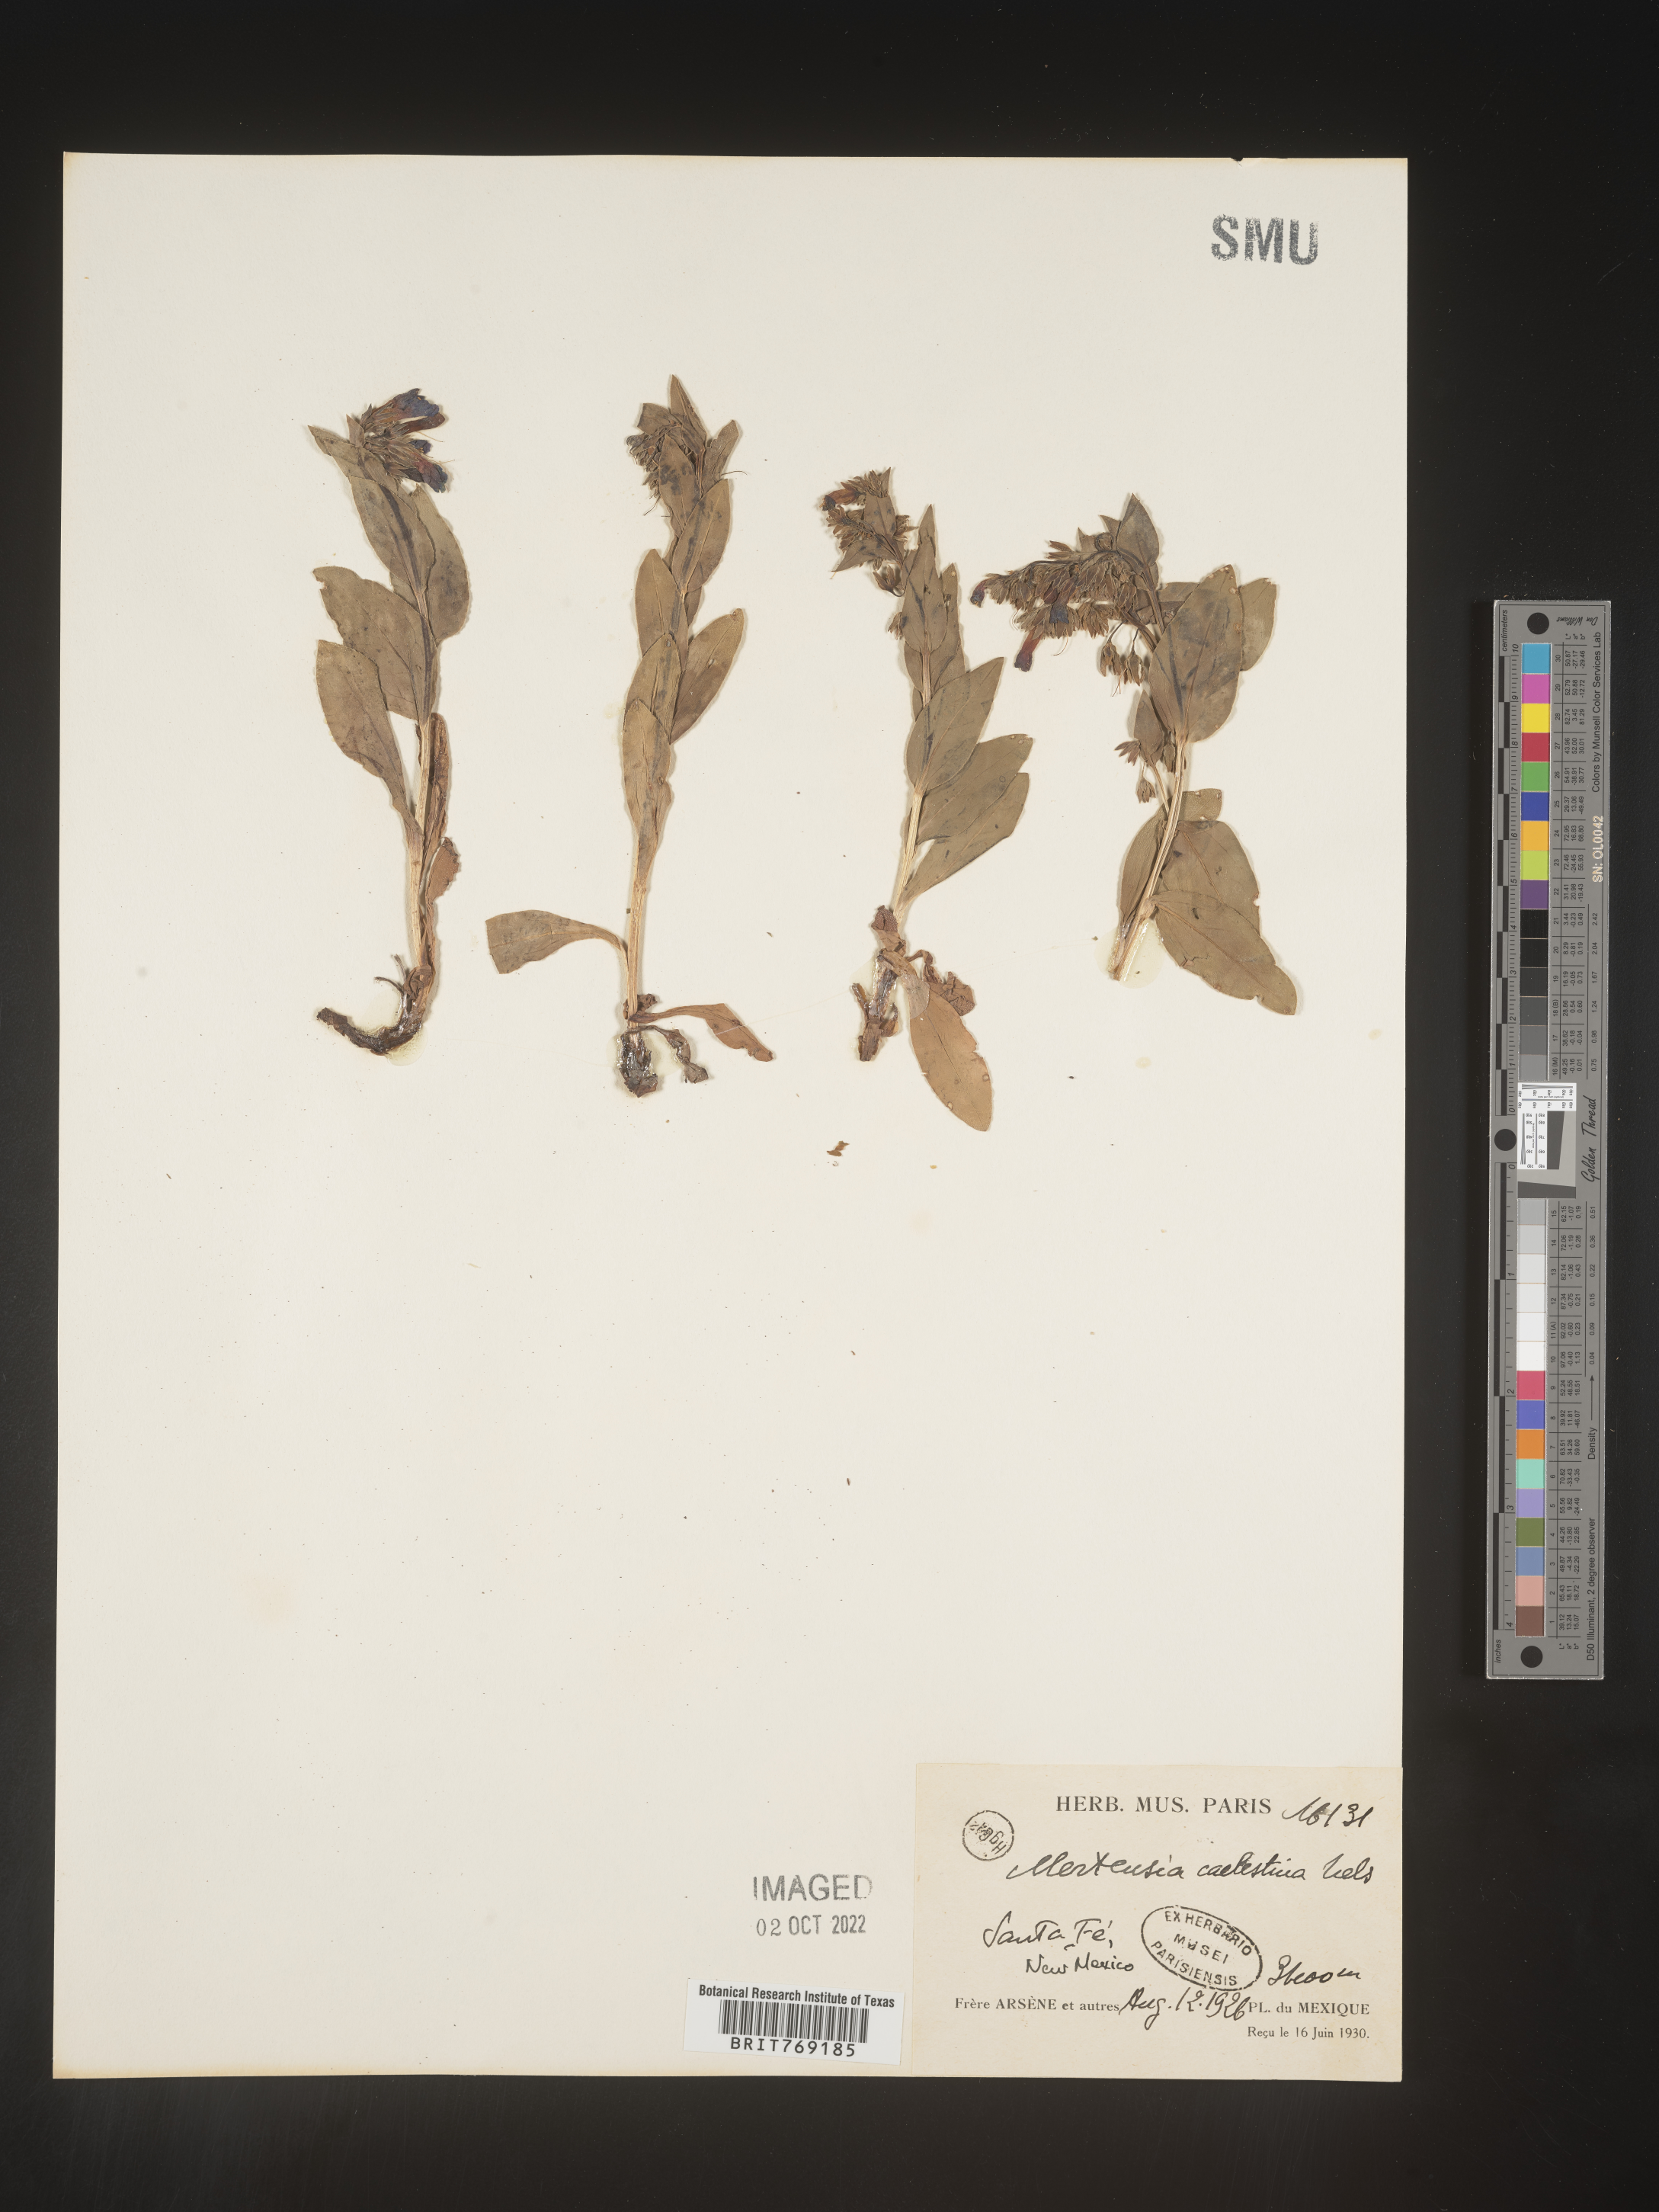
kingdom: Plantae
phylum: Tracheophyta
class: Magnoliopsida
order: Boraginales
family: Boraginaceae
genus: Mertensia
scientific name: Mertensia
